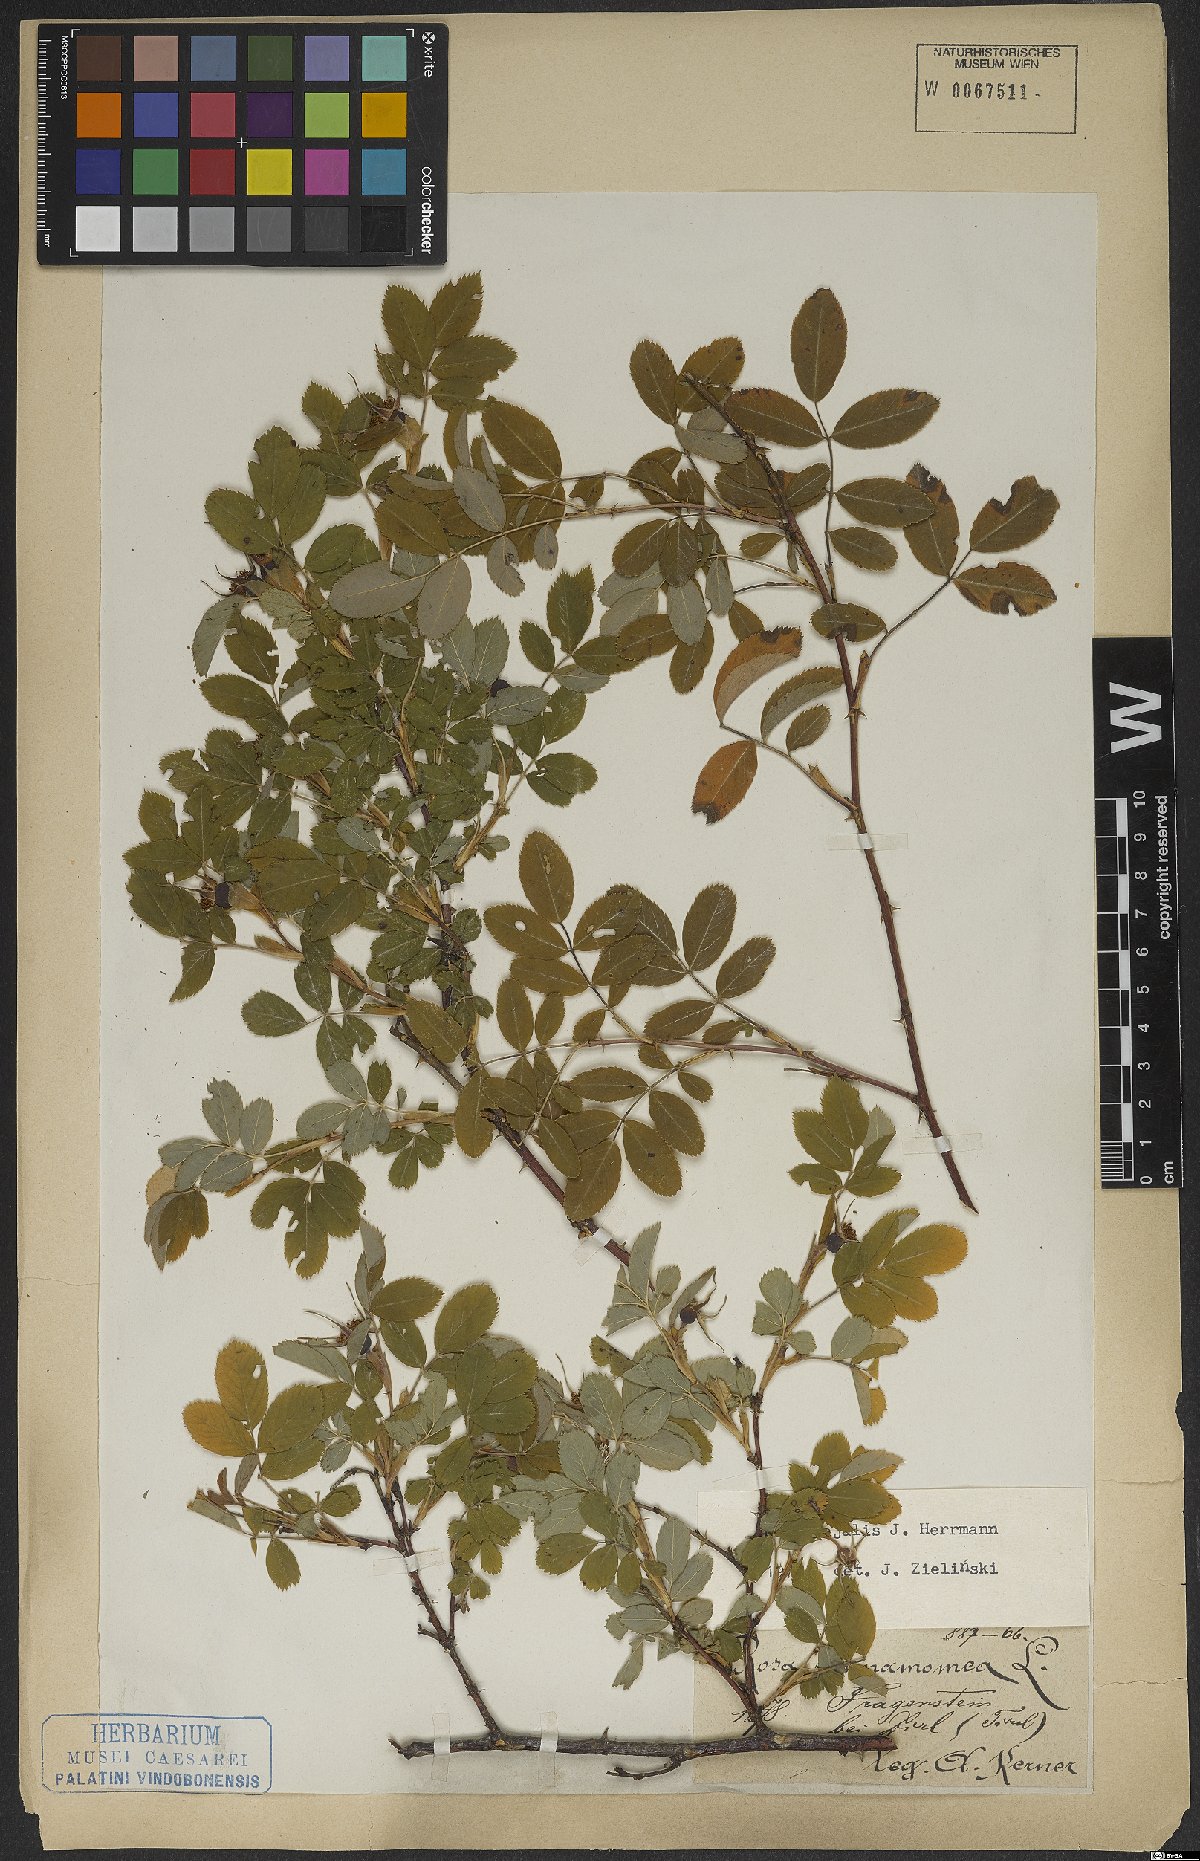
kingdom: Plantae
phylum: Tracheophyta
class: Magnoliopsida
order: Rosales
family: Rosaceae
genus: Rosa
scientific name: Rosa majalis
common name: Cinnamon rose
